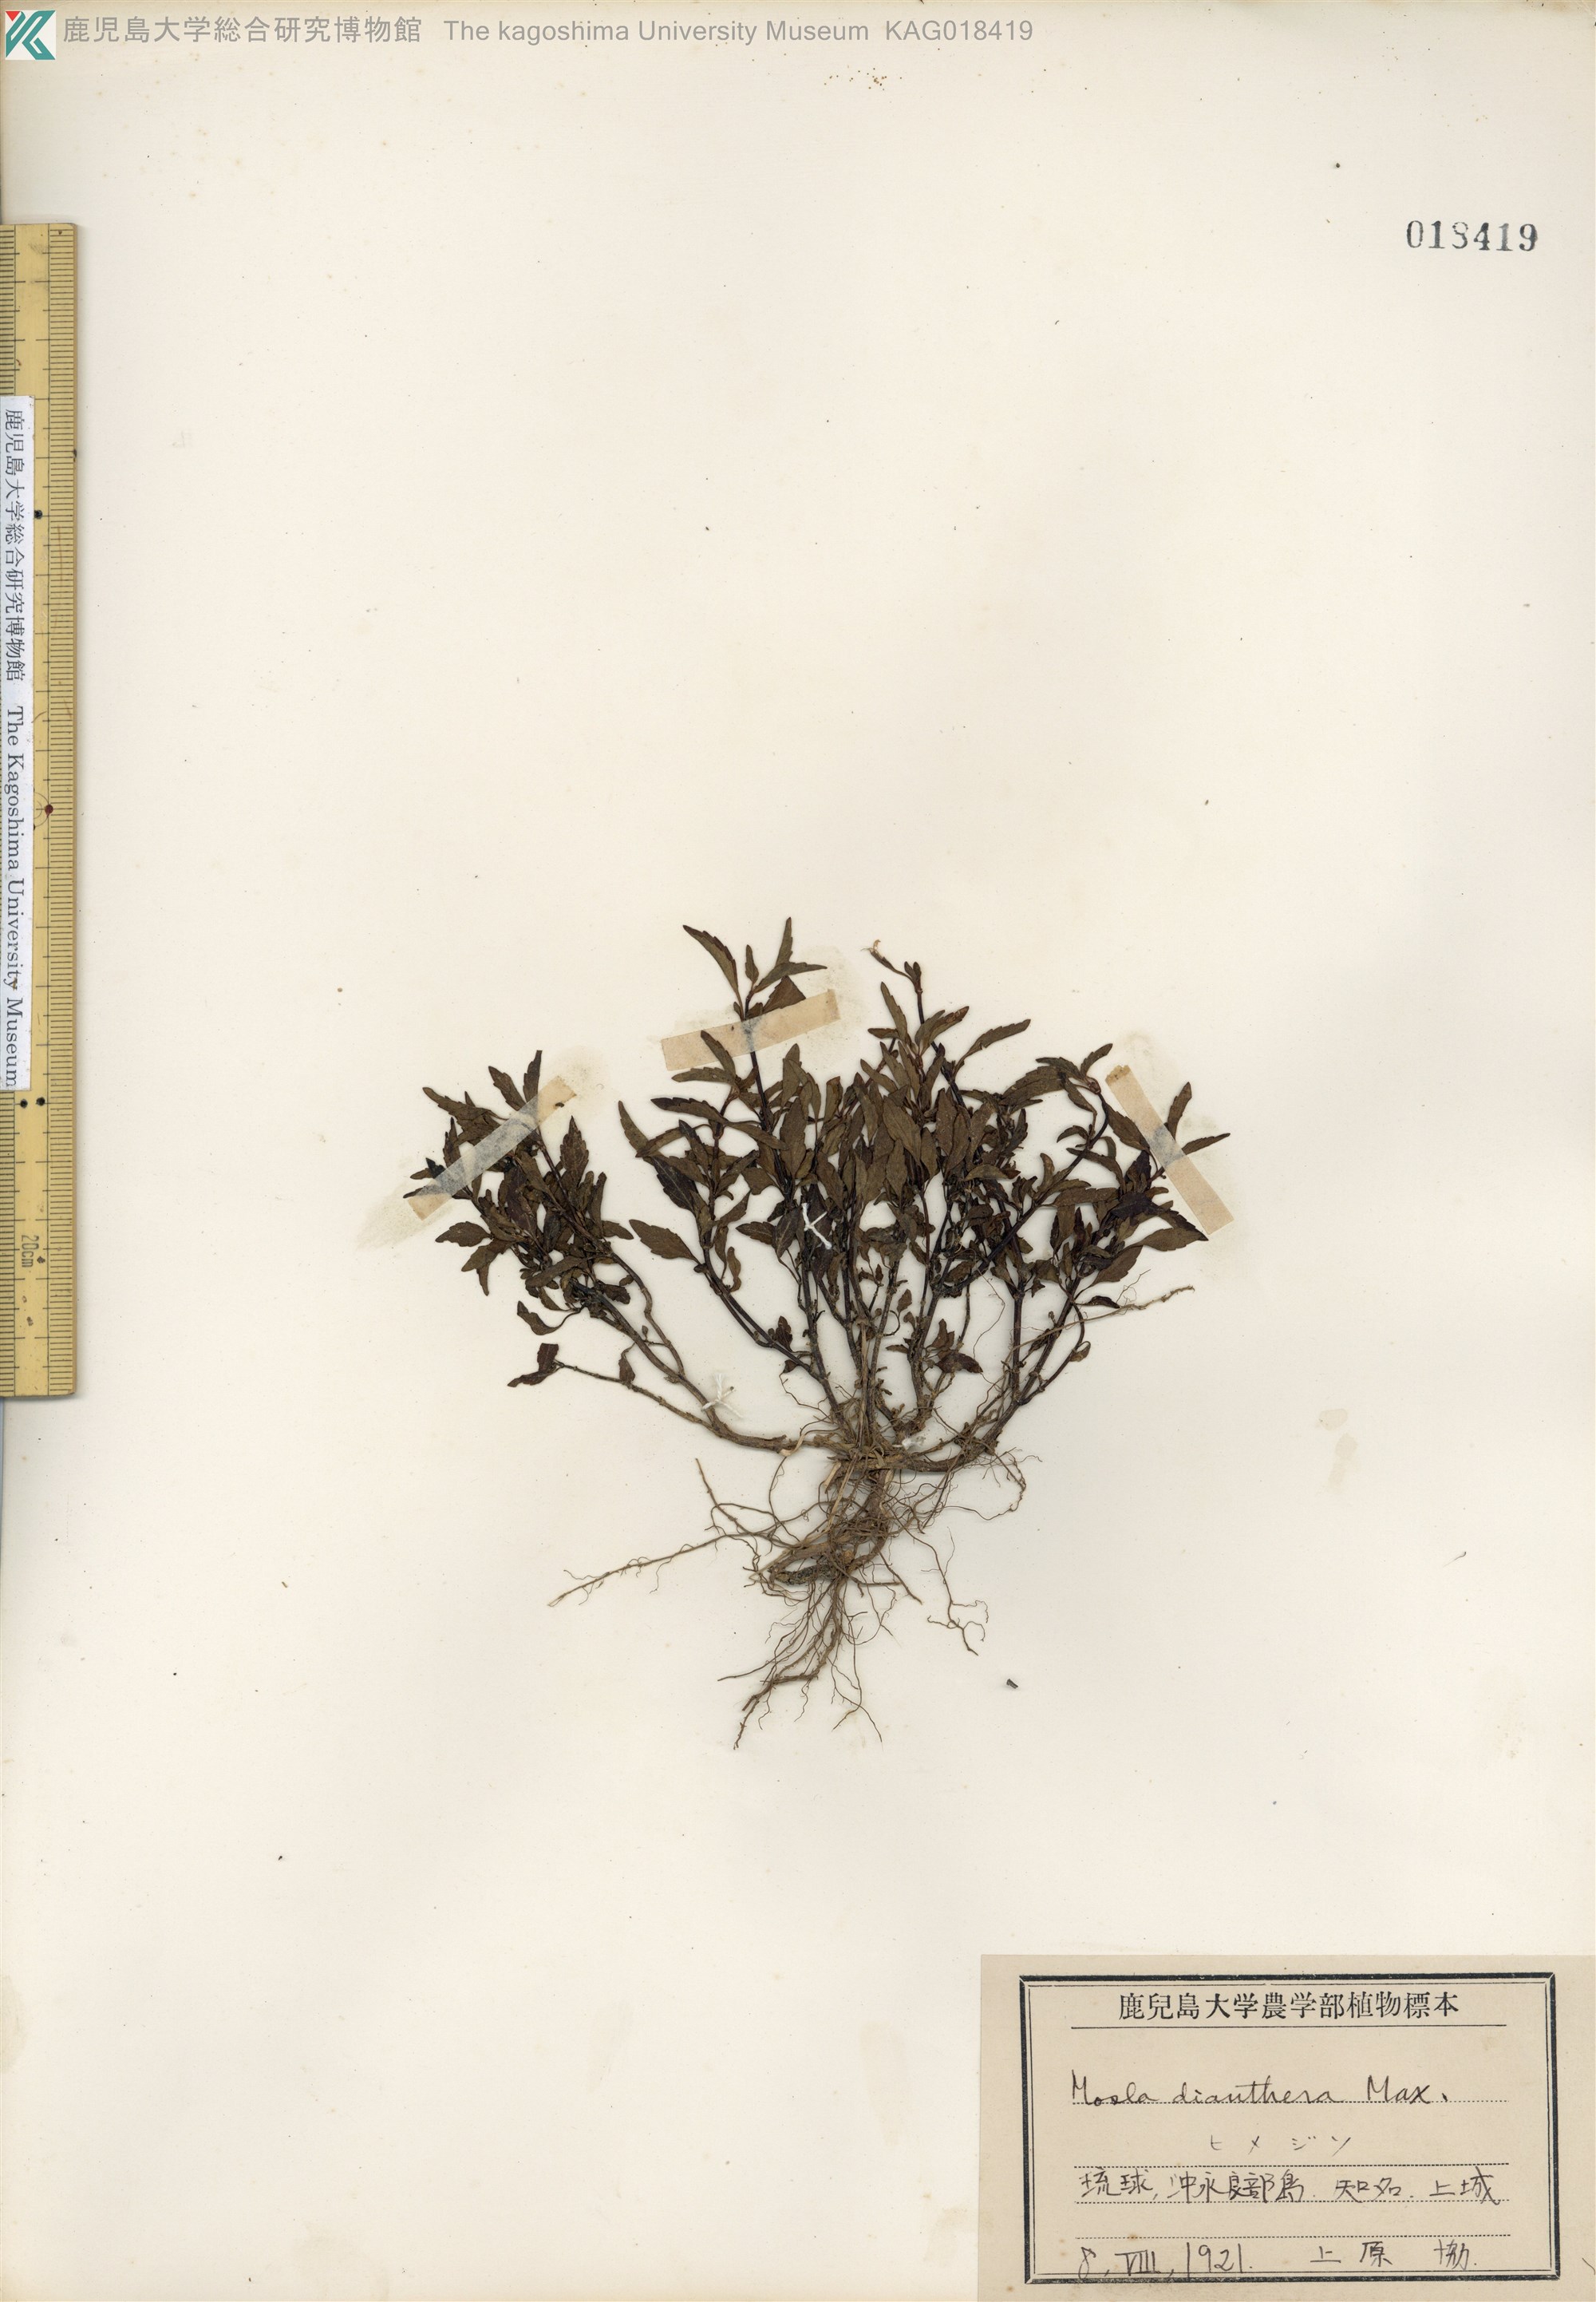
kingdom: Plantae
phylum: Tracheophyta
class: Magnoliopsida
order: Lamiales
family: Lamiaceae
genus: Mosla
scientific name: Mosla dianthera
